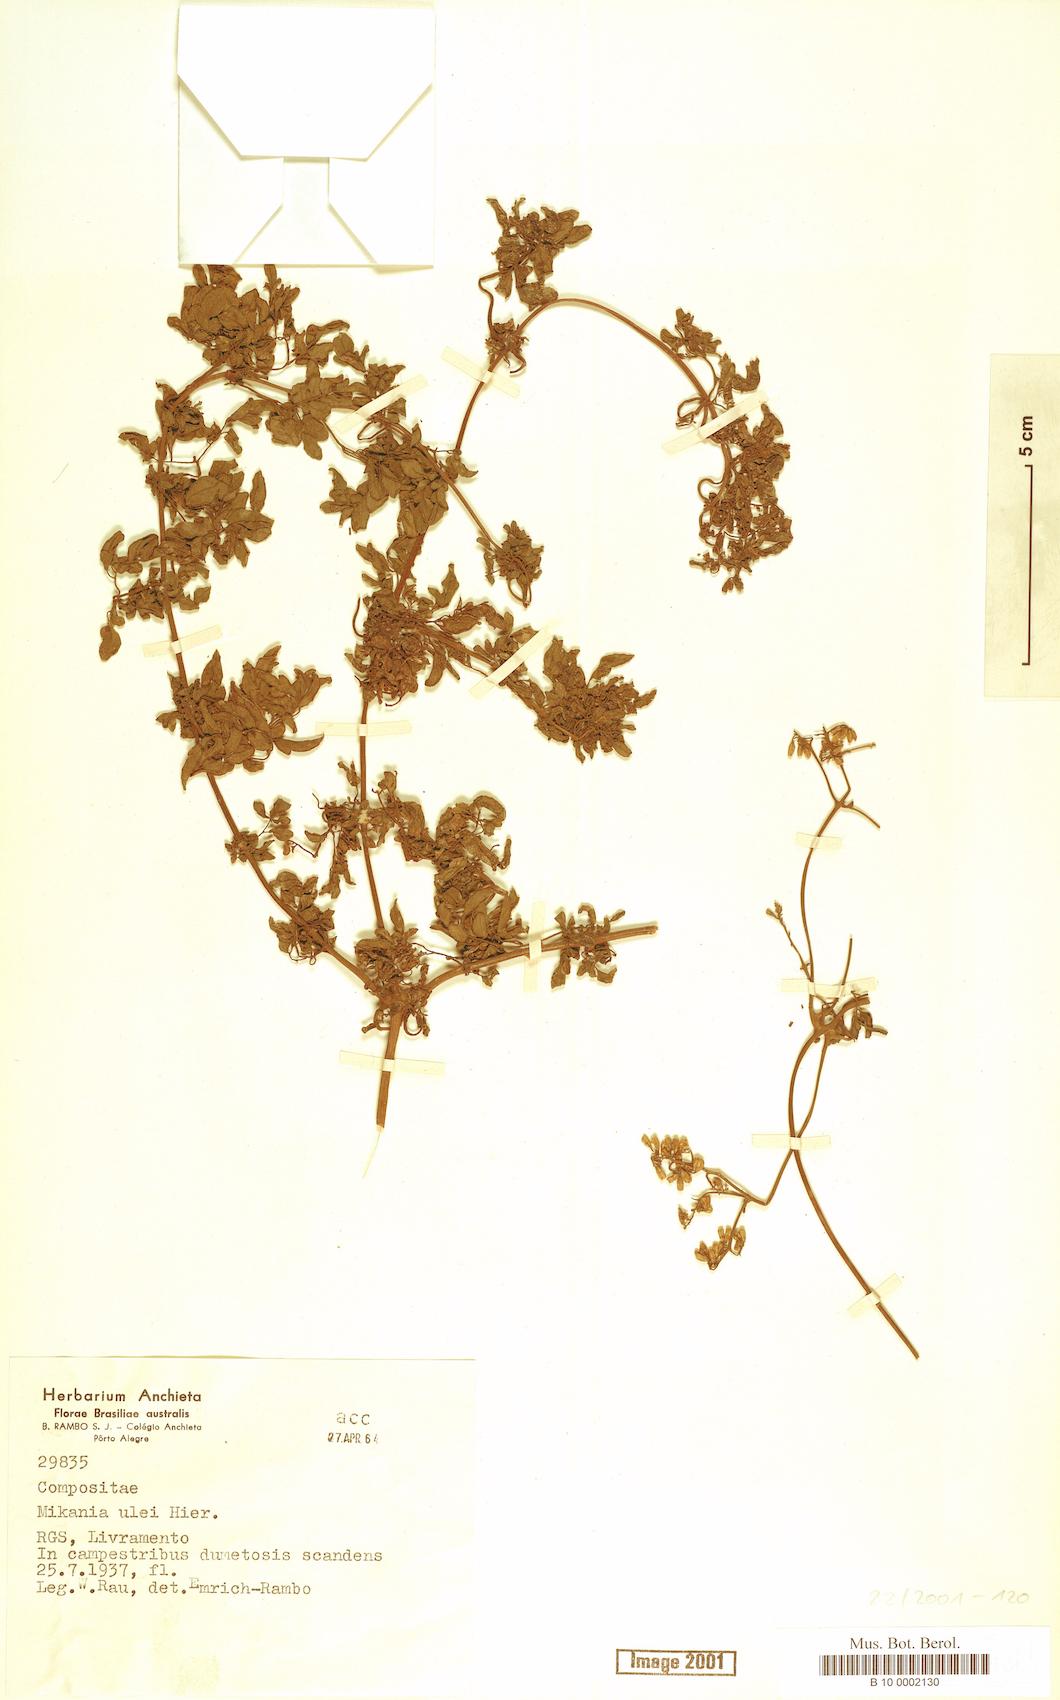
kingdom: Plantae
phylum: Tracheophyta
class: Magnoliopsida
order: Asterales
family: Asteraceae
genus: Mikania
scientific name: Mikania ulei
